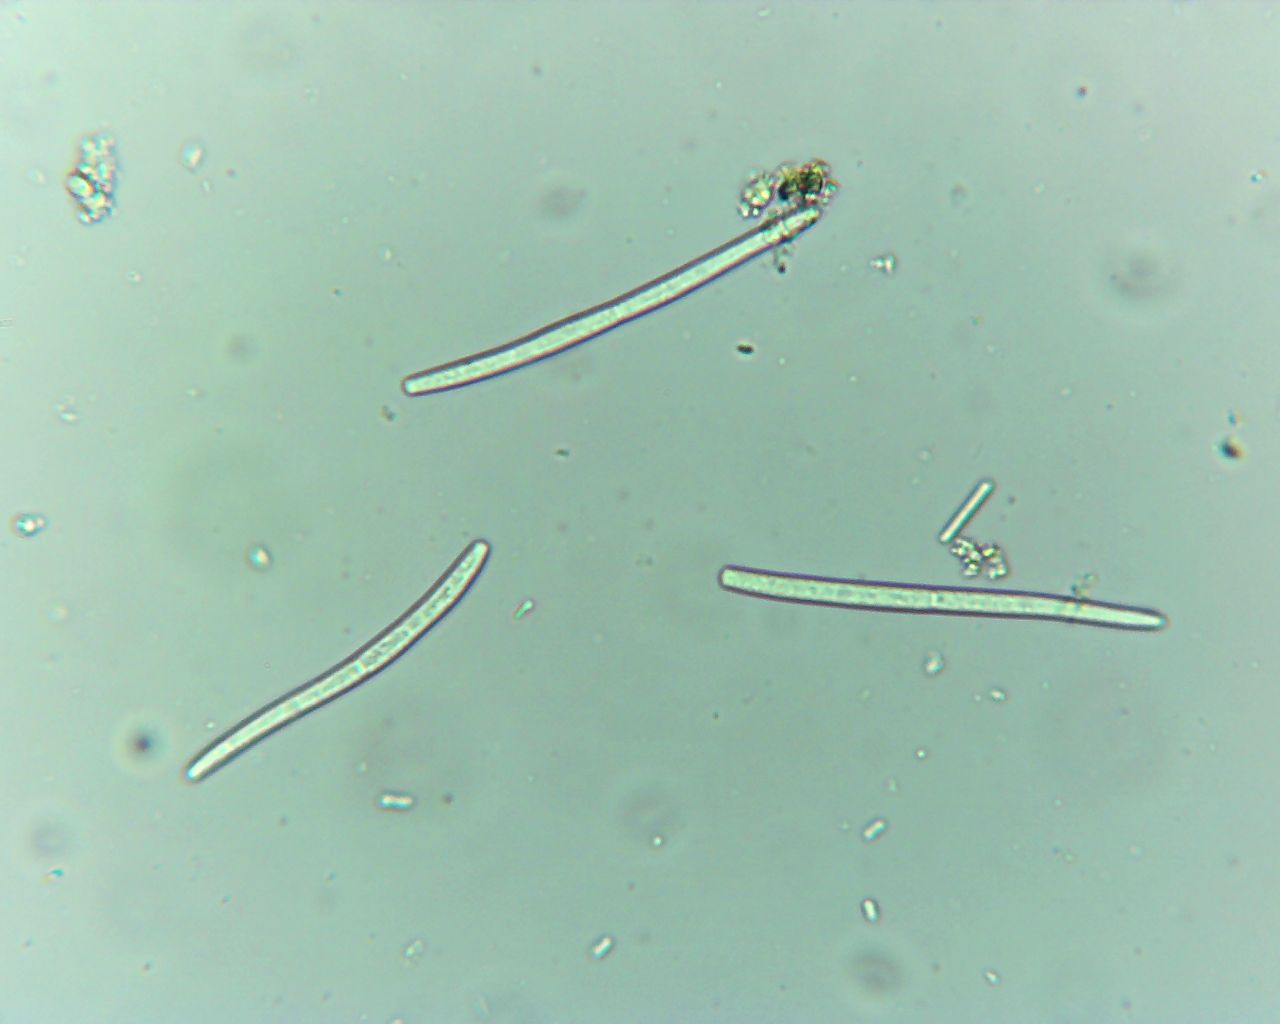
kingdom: Fungi
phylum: Ascomycota
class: Dothideomycetes
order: Mycosphaerellales
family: Mycosphaerellaceae
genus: Mycosphaerella
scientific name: Mycosphaerella podagrariae
